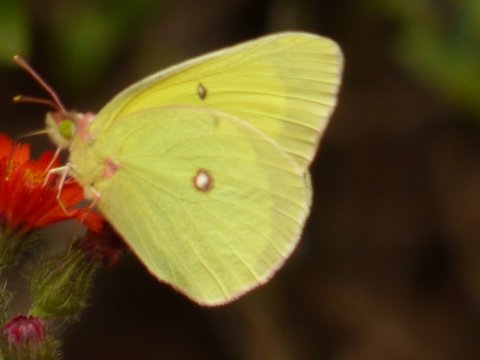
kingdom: Animalia
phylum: Arthropoda
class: Insecta
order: Lepidoptera
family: Pieridae
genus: Colias
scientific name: Colias interior
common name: Pink-edged Sulphur
